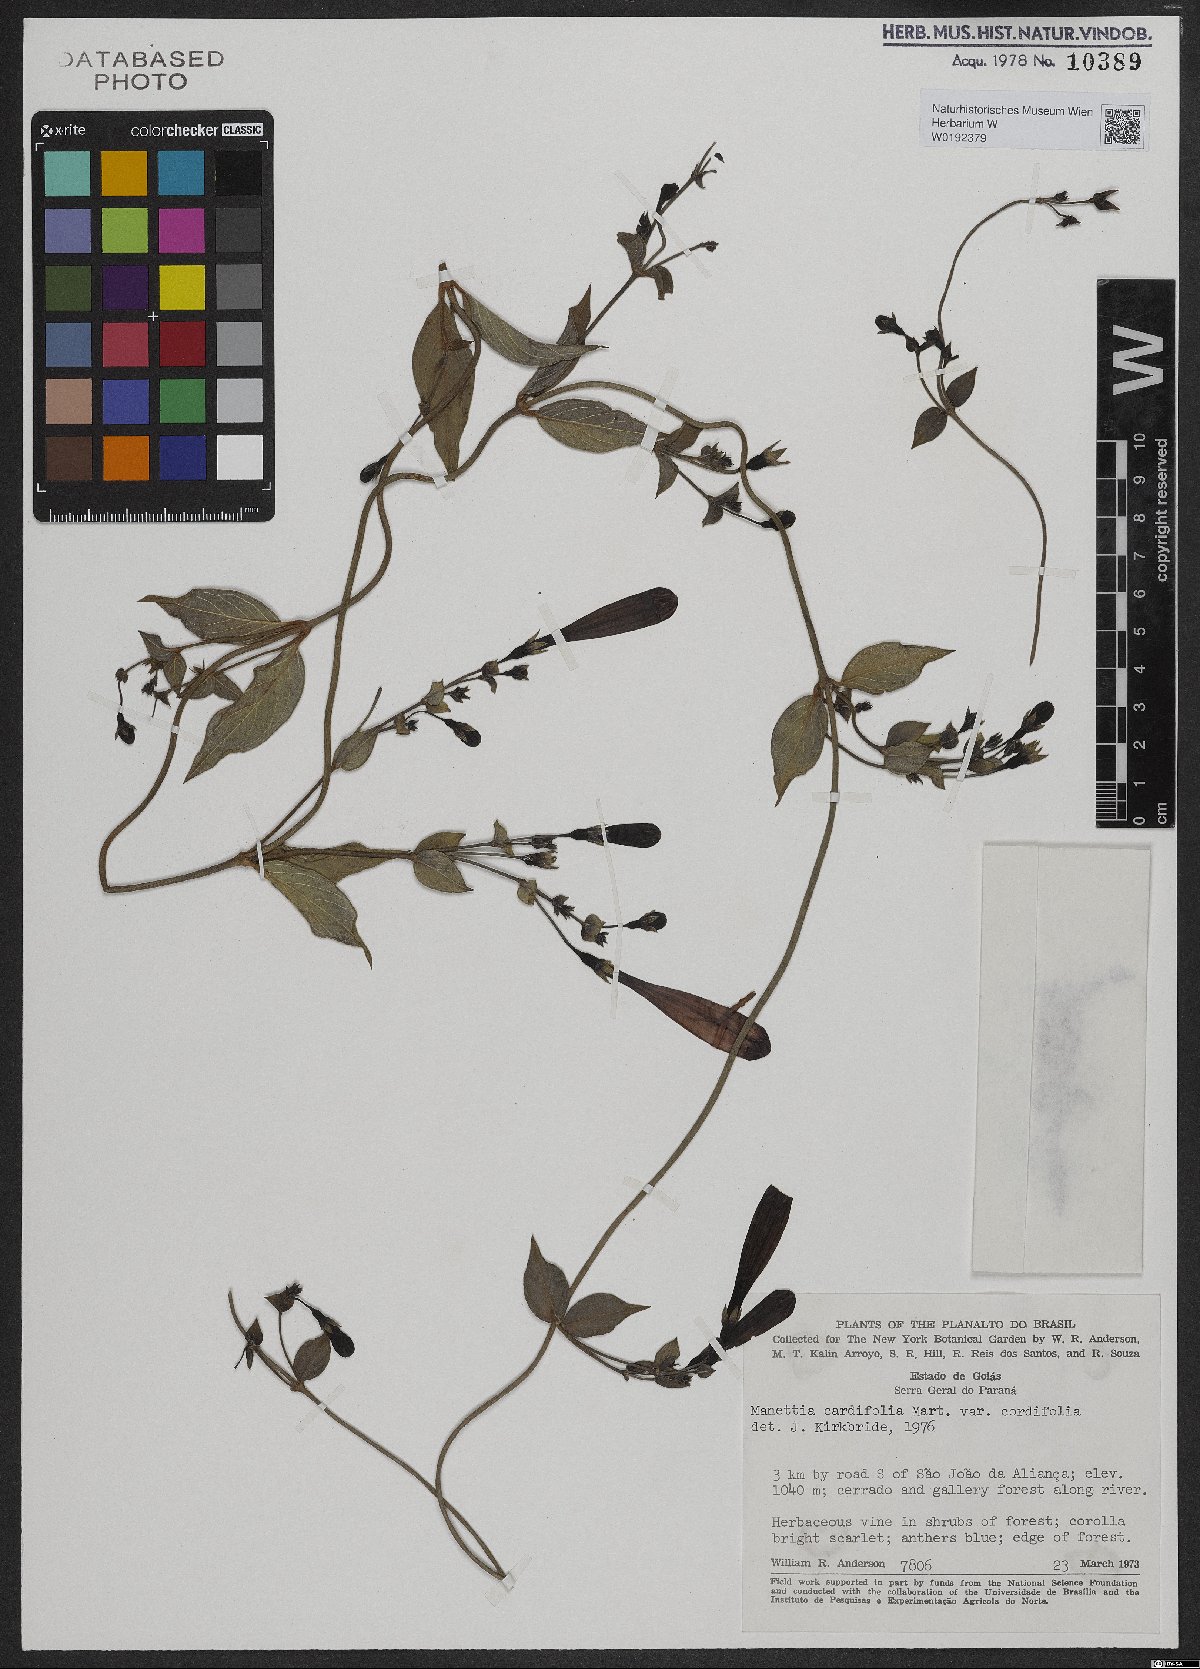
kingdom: Plantae
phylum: Tracheophyta
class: Magnoliopsida
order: Gentianales
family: Rubiaceae
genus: Manettia
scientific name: Manettia cordifolia
